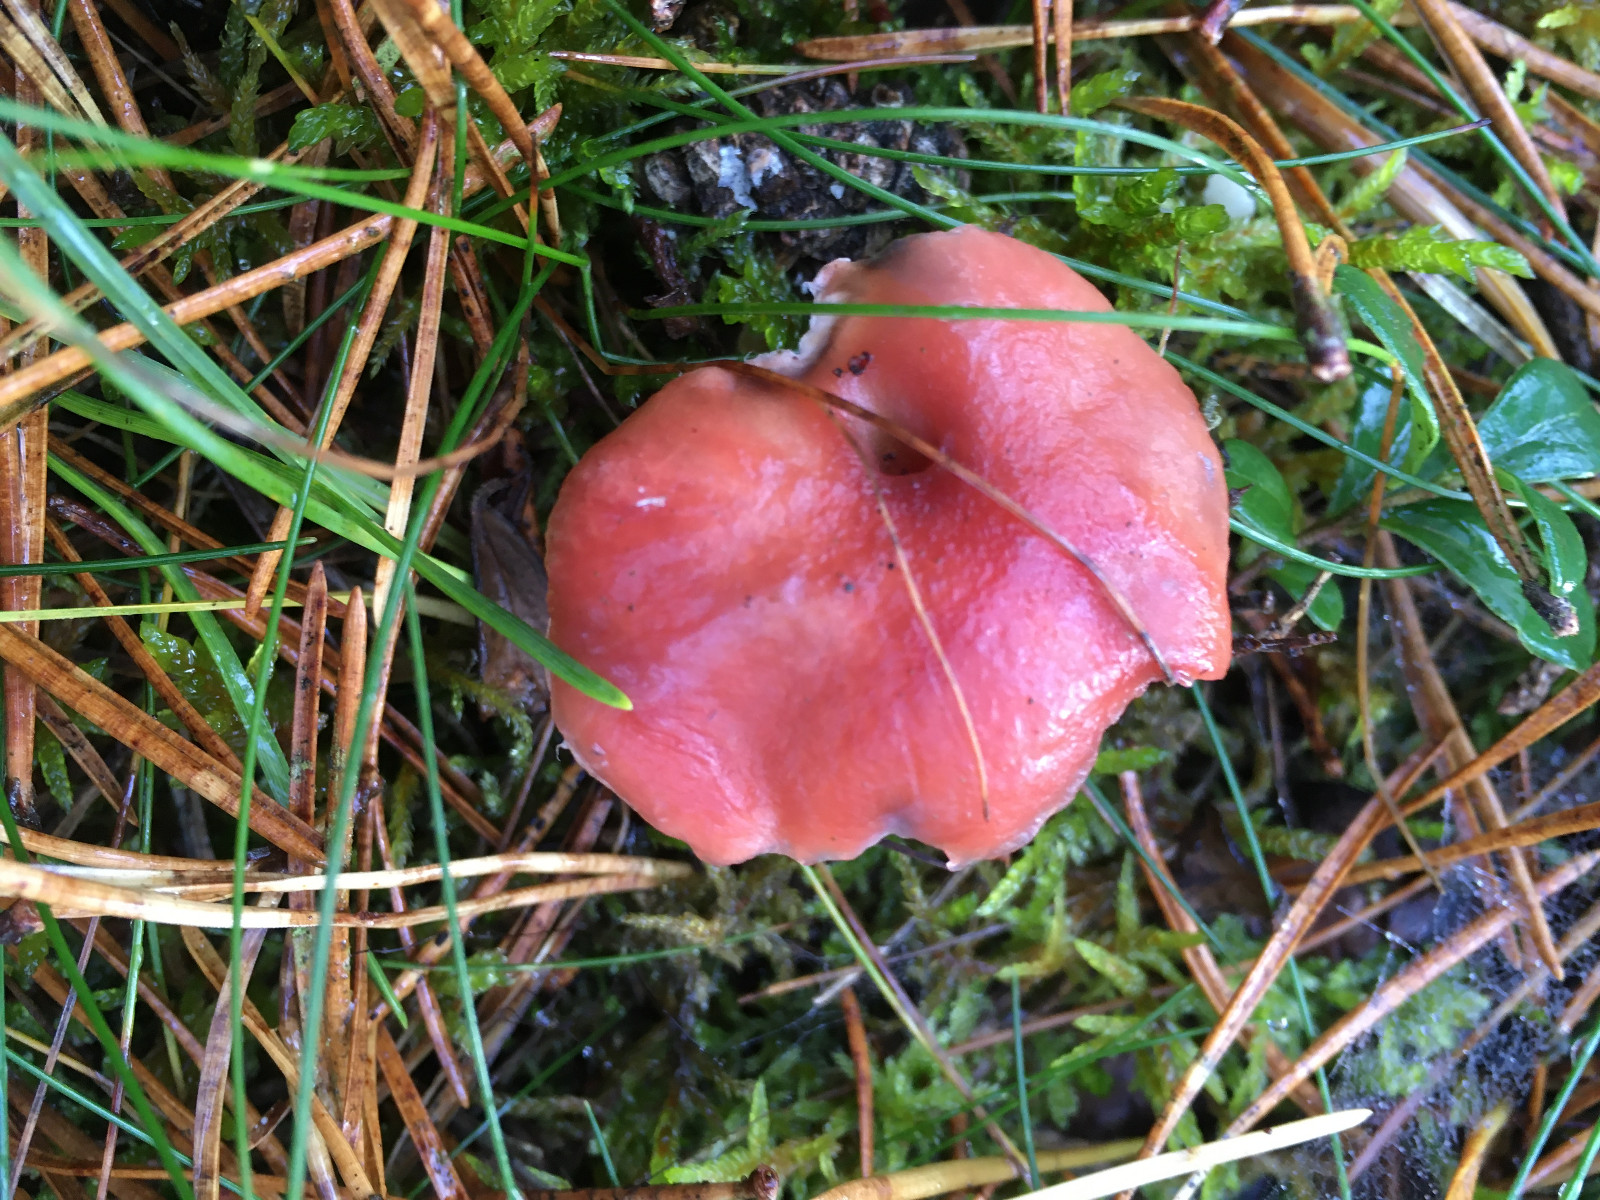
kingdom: Fungi
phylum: Basidiomycota
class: Agaricomycetes
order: Boletales
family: Gomphidiaceae
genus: Gomphidius
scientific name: Gomphidius roseus
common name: rosenrød slimslør
